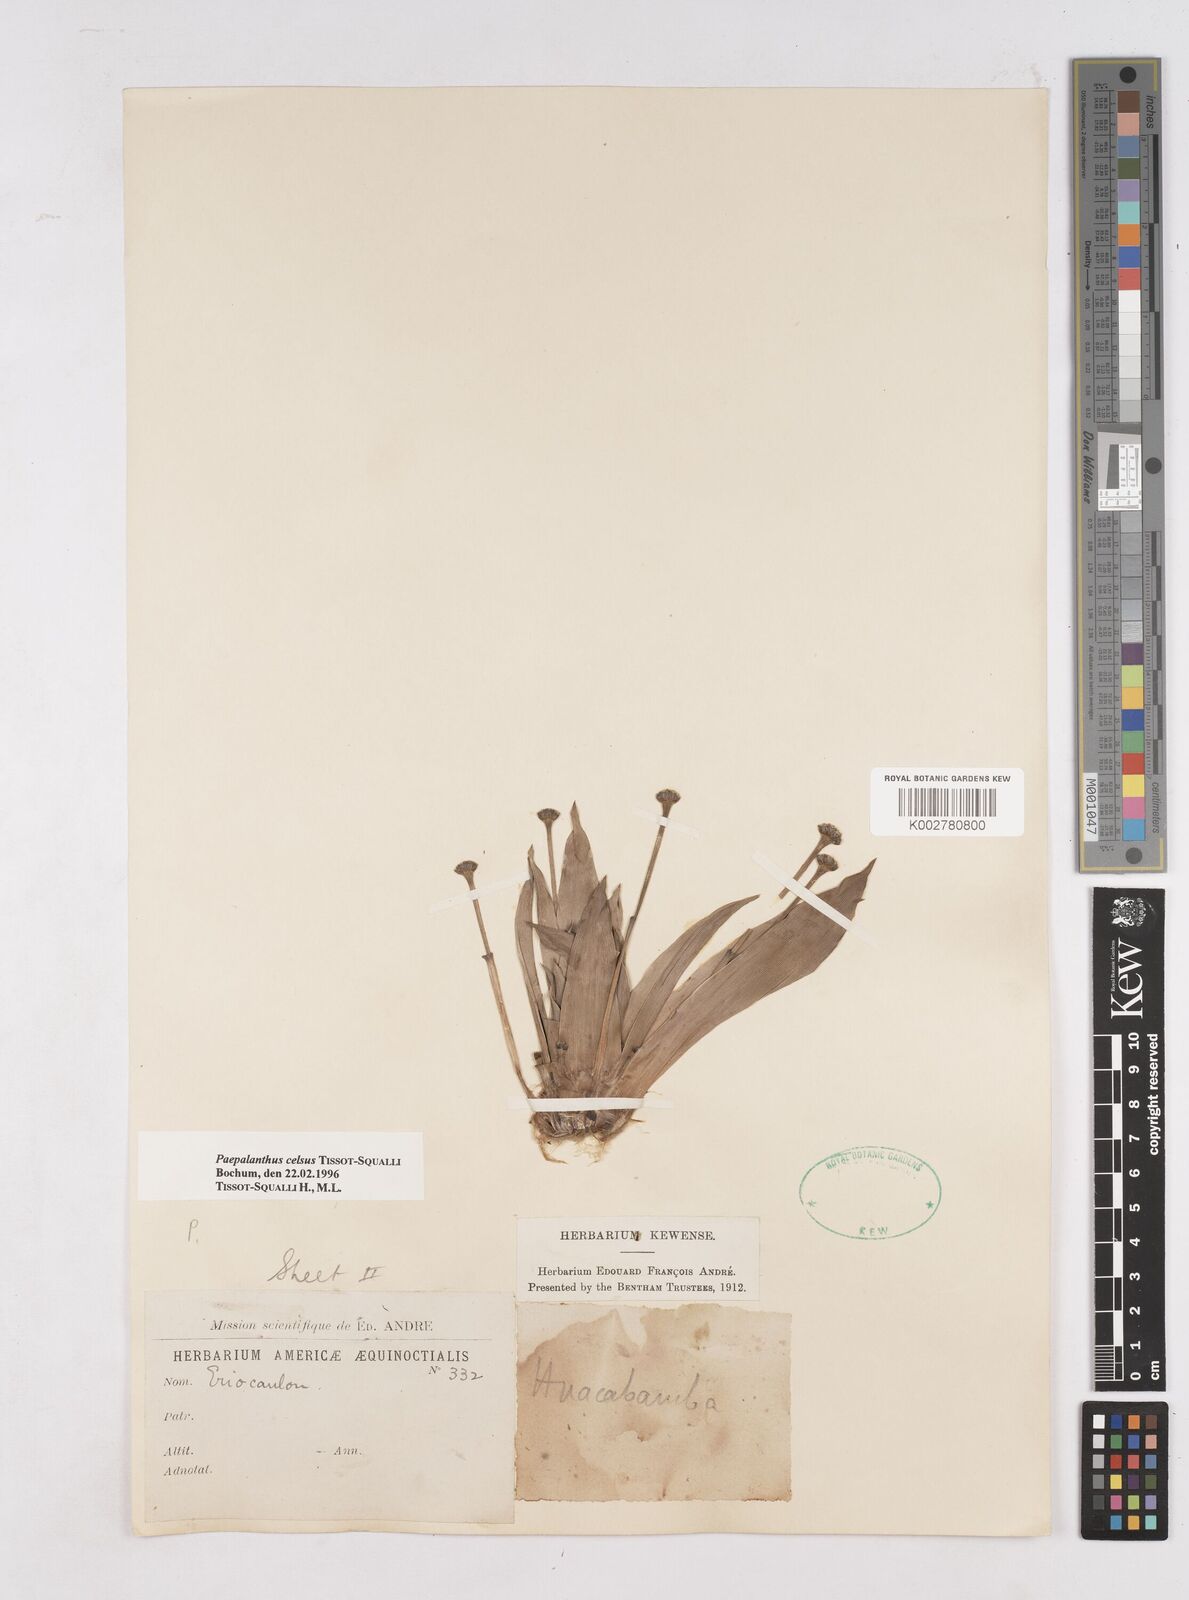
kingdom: Plantae
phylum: Tracheophyta
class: Liliopsida
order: Poales
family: Eriocaulaceae
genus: Paepalanthus
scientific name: Paepalanthus celsus
